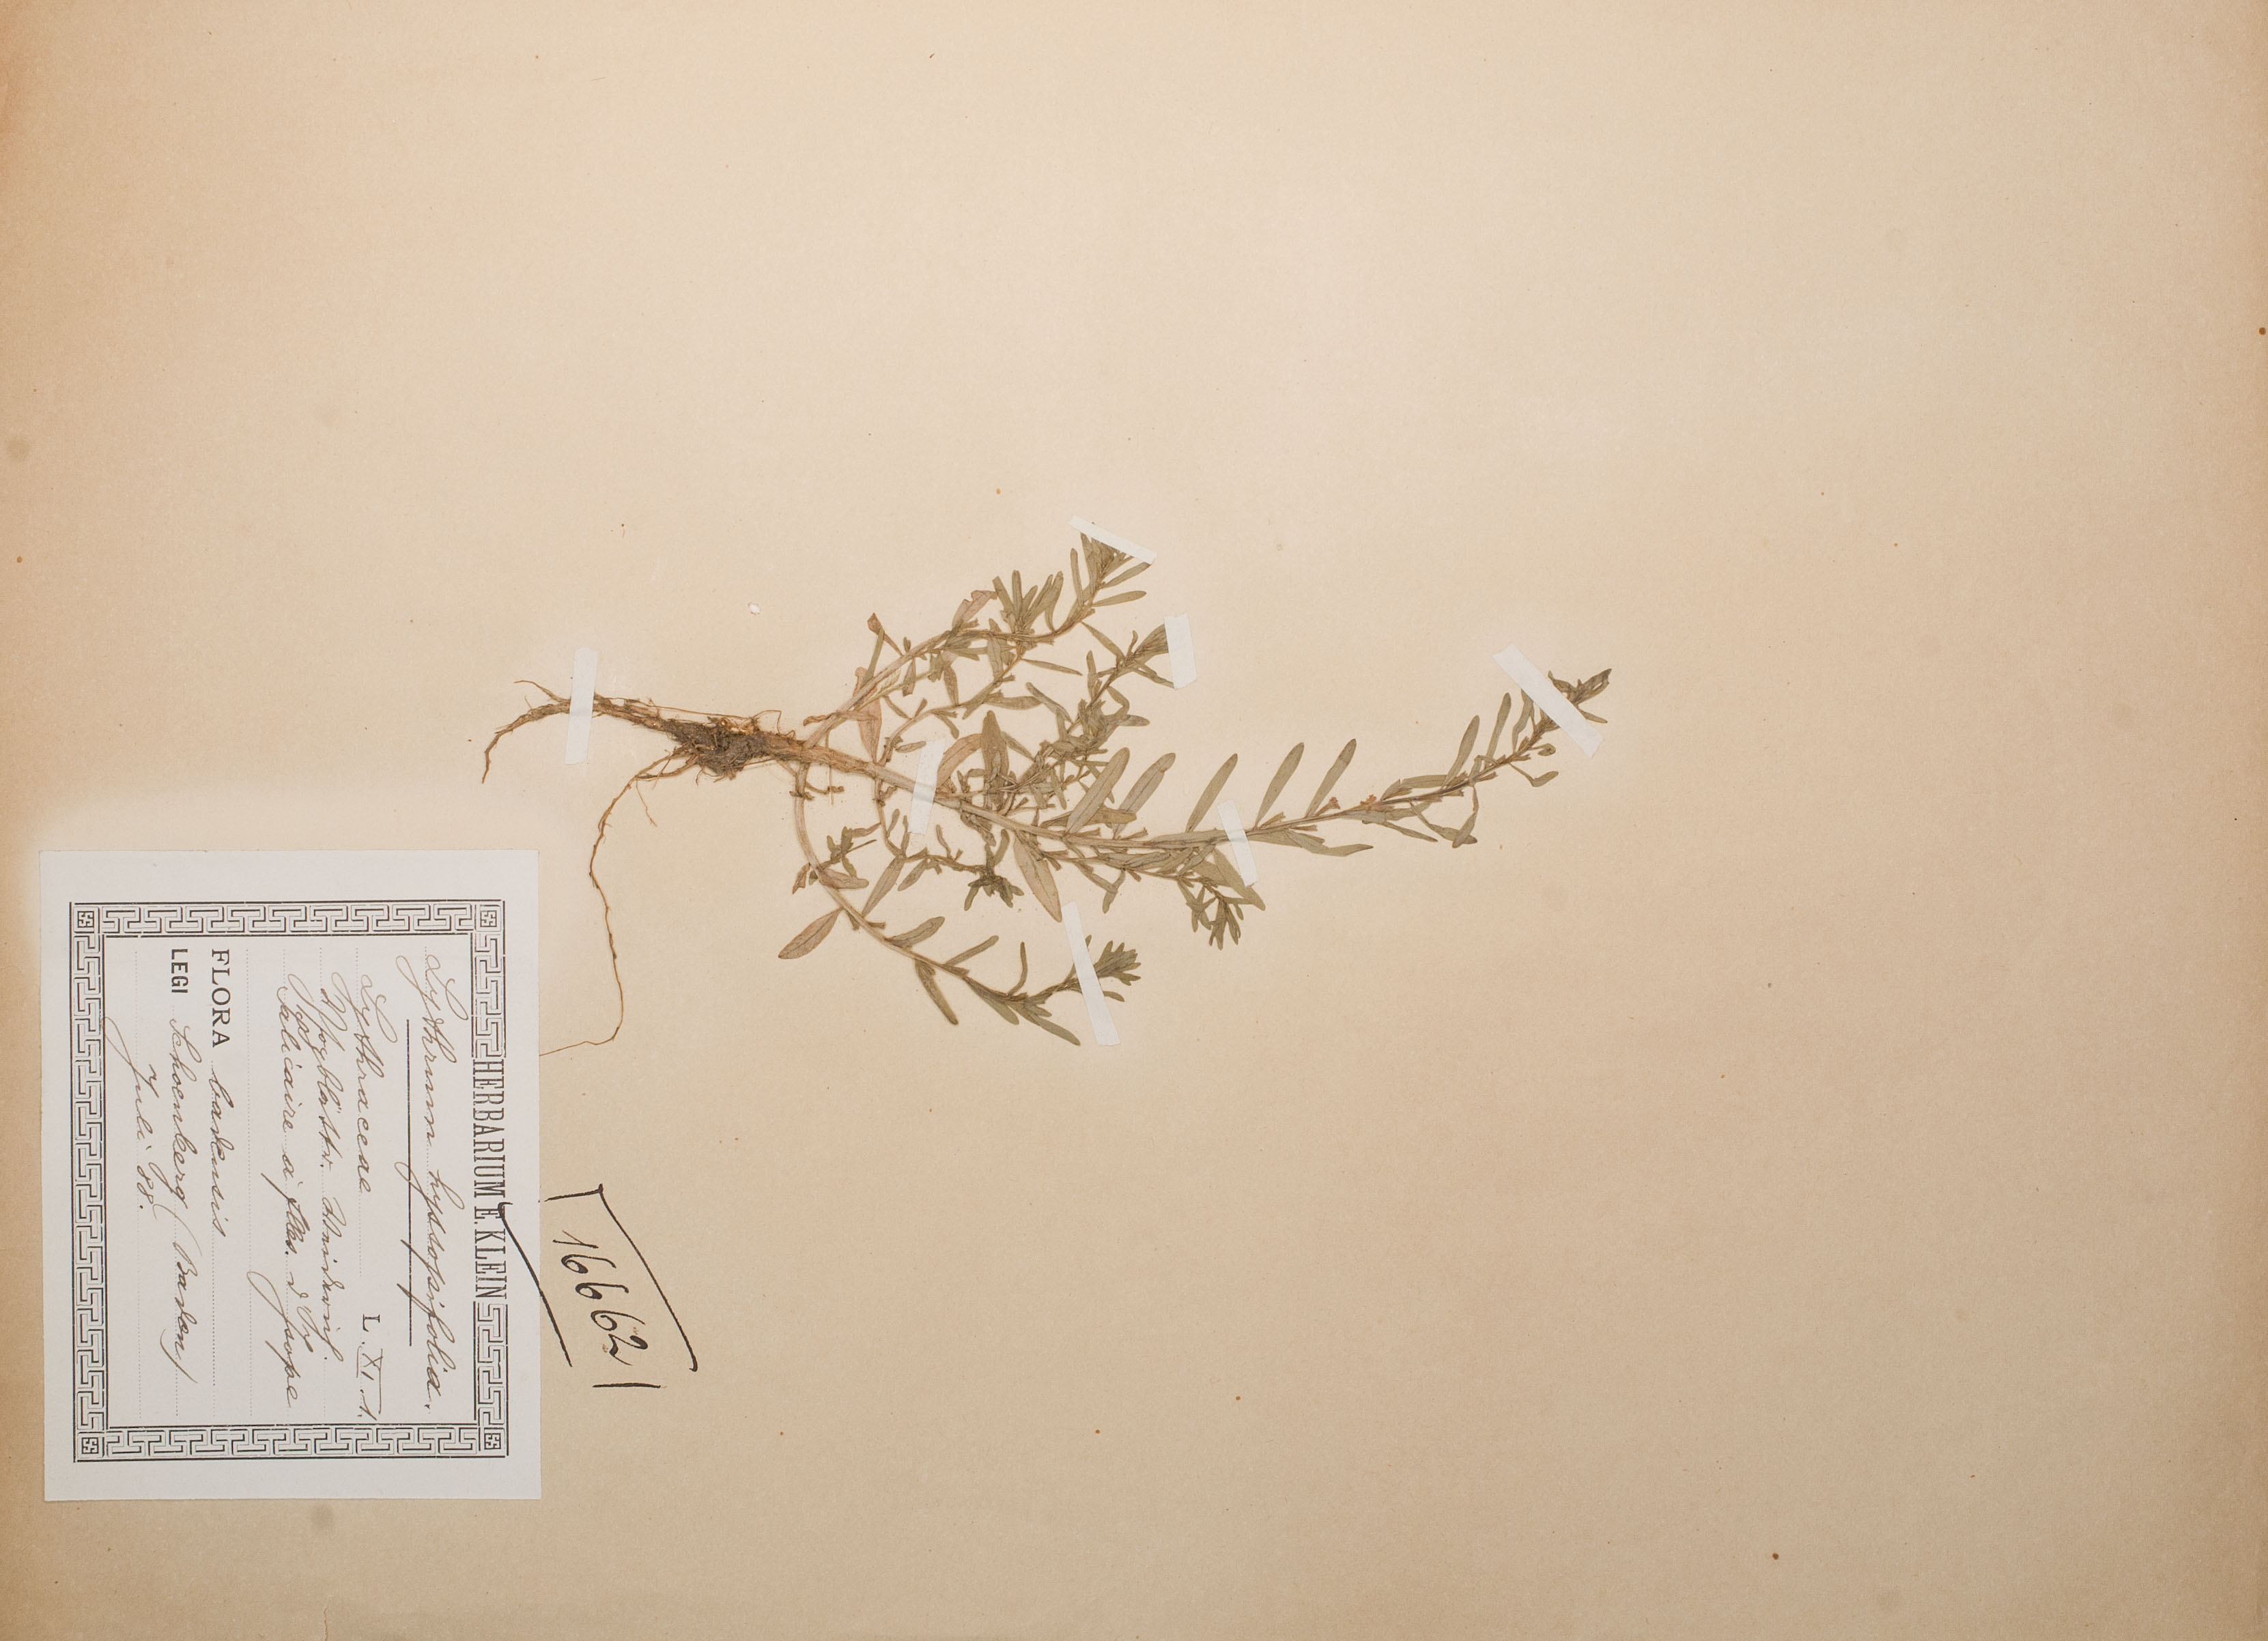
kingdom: Plantae
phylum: Tracheophyta
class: Magnoliopsida
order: Myrtales
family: Lythraceae
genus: Lythrum
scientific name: Lythrum hyssopifolia
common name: Grass-poly
